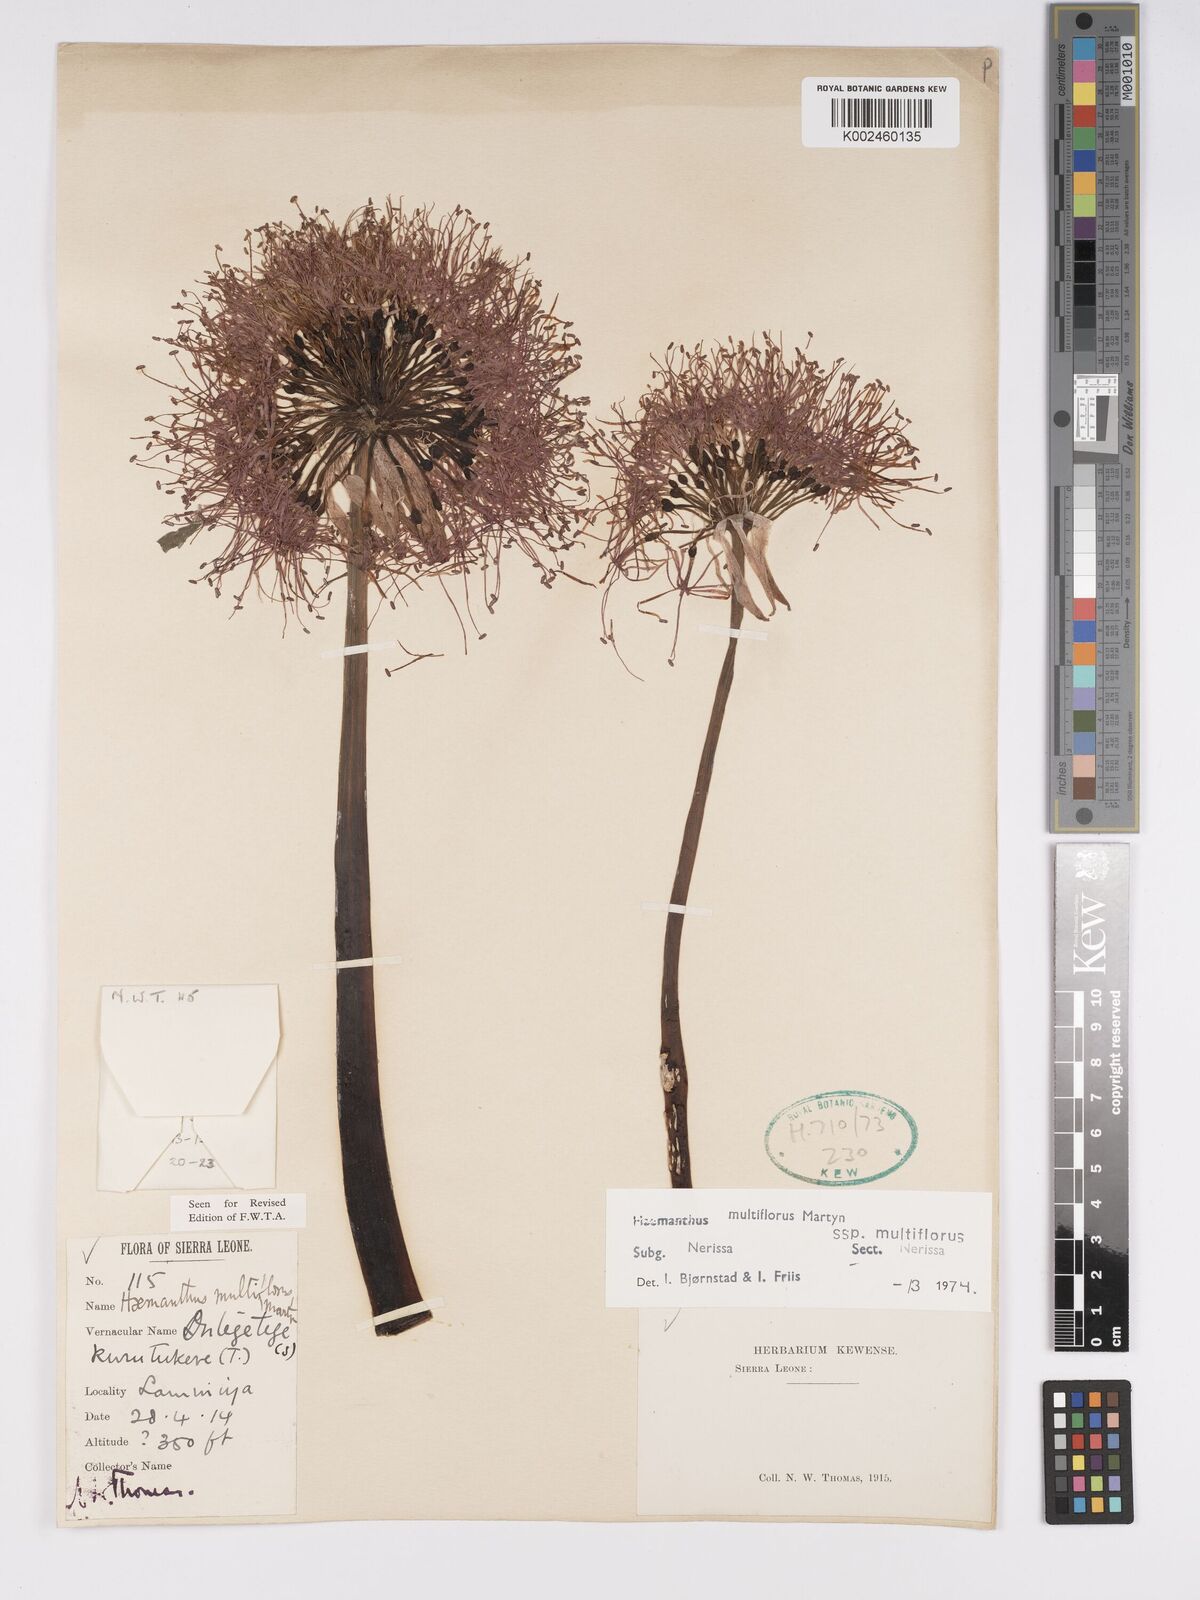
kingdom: Plantae
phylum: Tracheophyta
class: Liliopsida
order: Asparagales
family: Amaryllidaceae
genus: Scadoxus
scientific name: Scadoxus multiflorus
